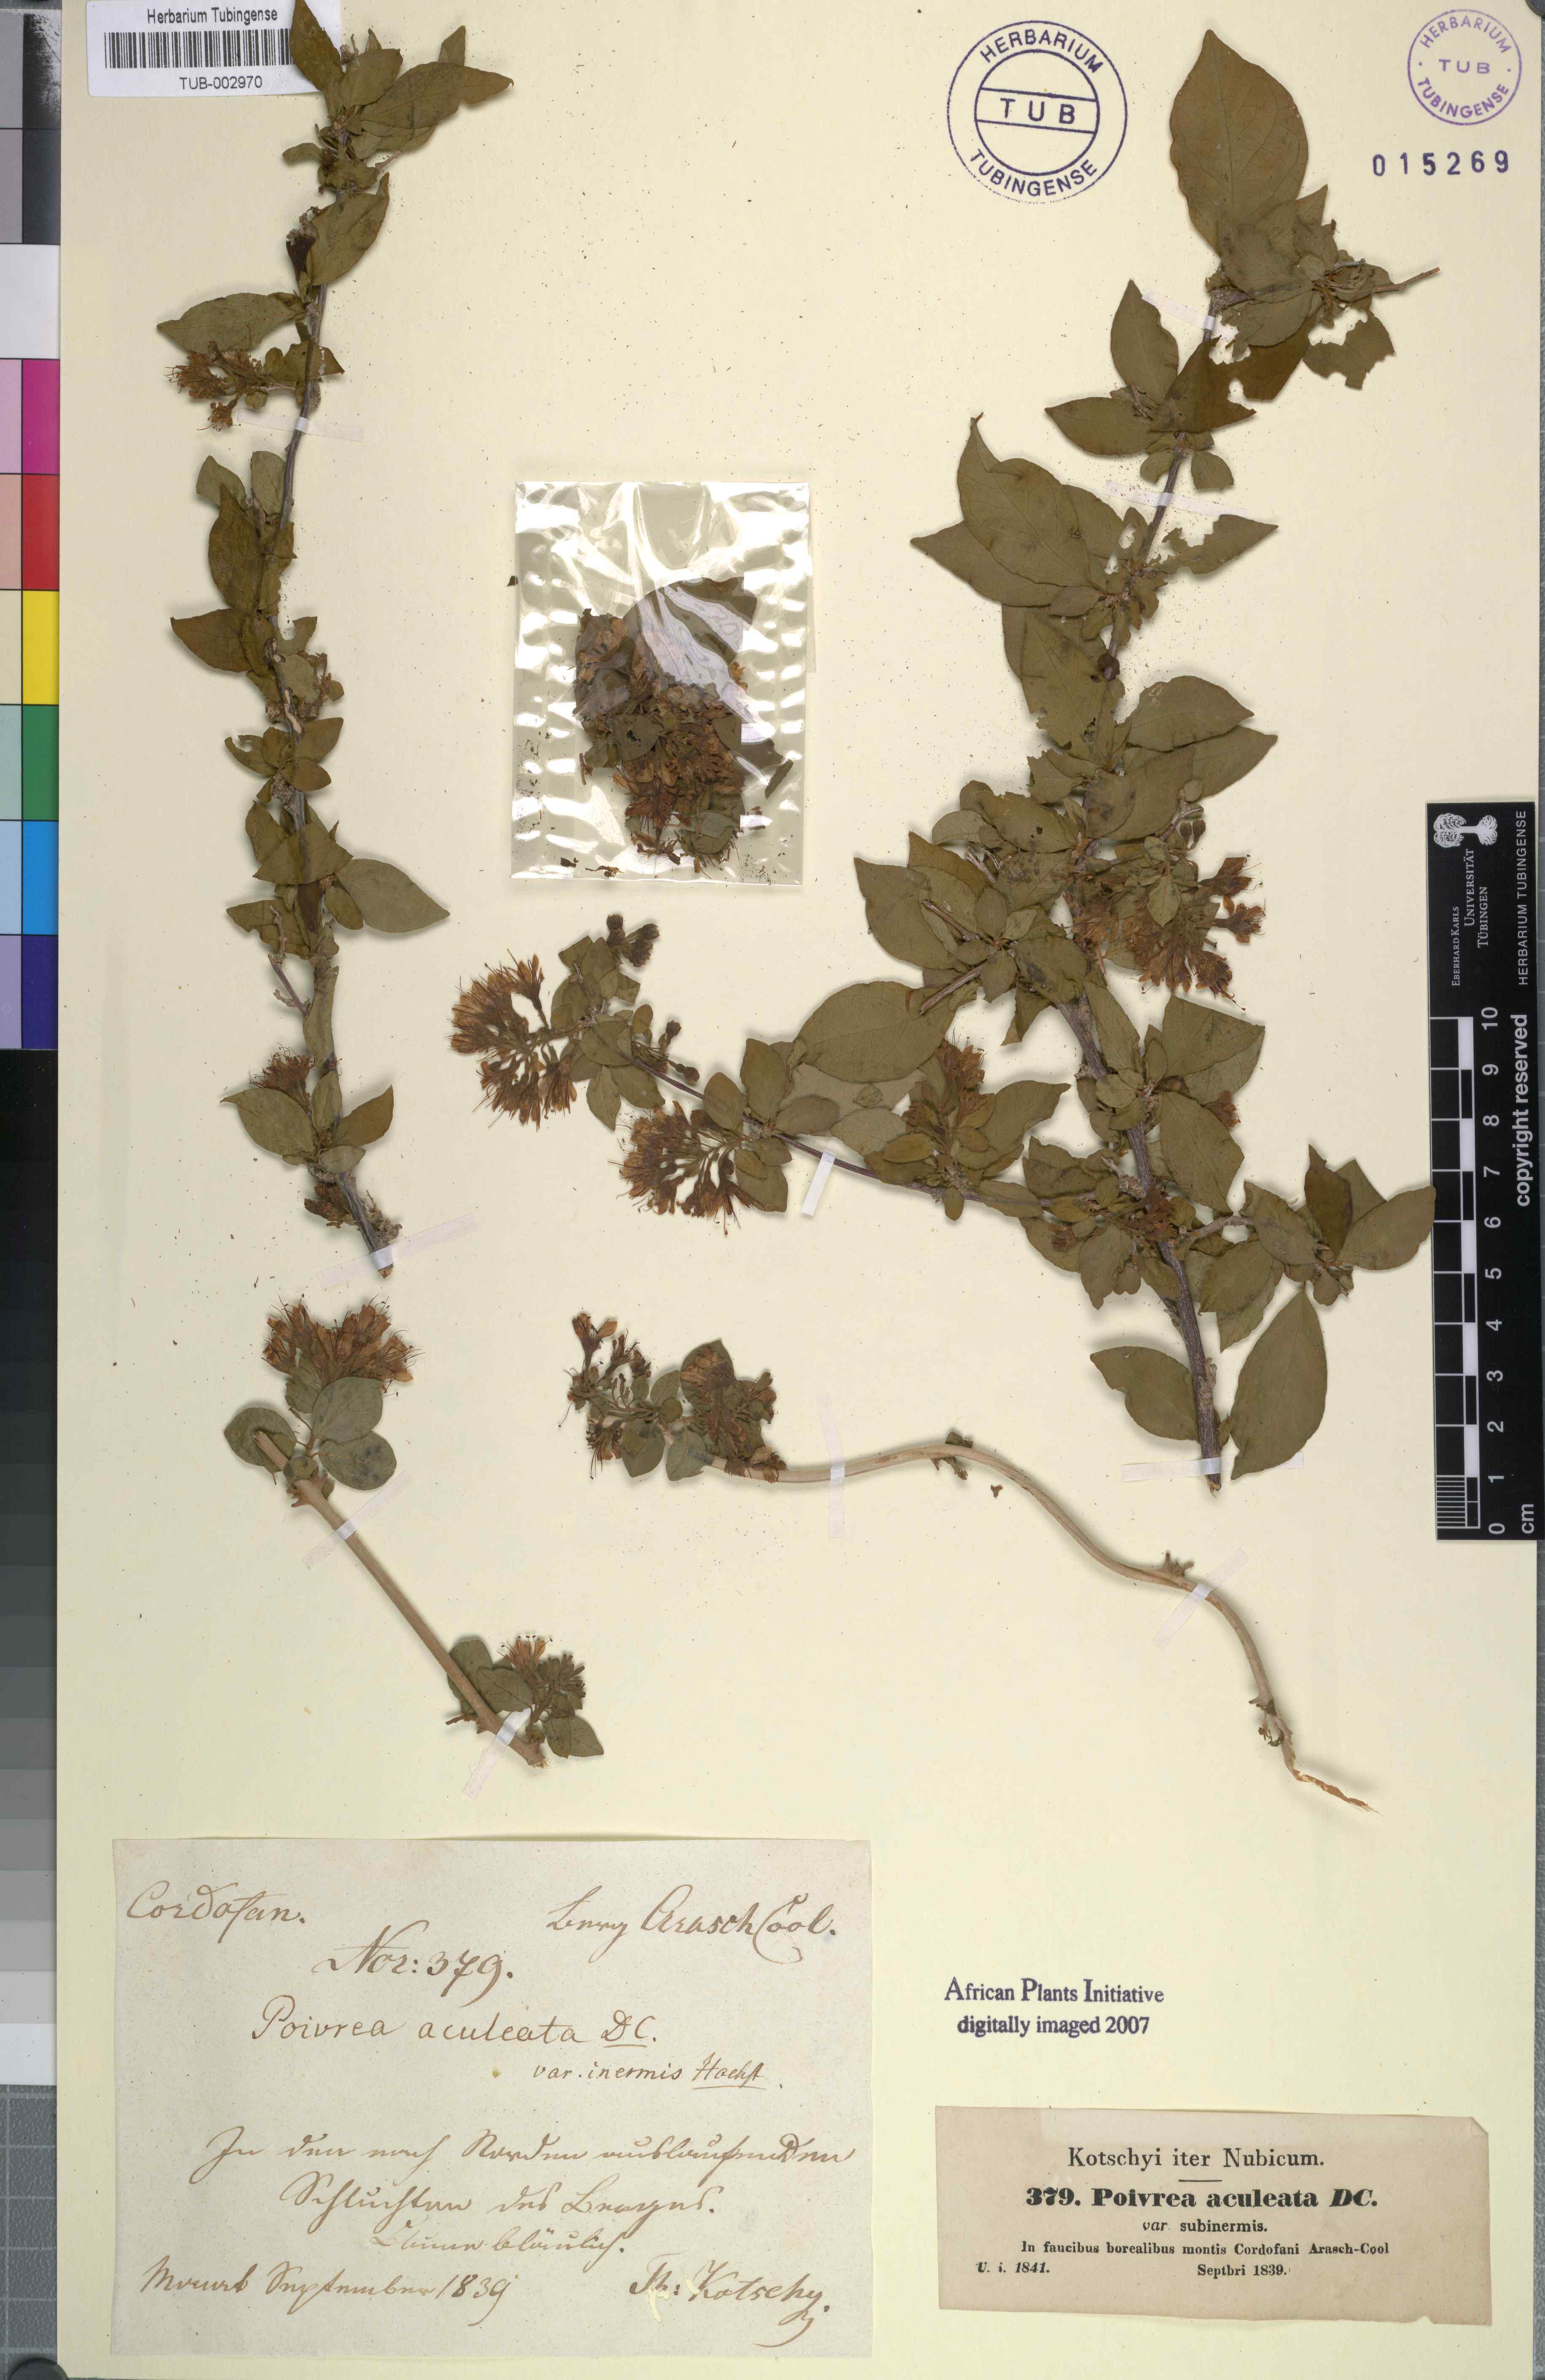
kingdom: Plantae
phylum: Tracheophyta
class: Magnoliopsida
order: Myrtales
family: Combretaceae
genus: Combretum
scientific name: Combretum aculeatum
